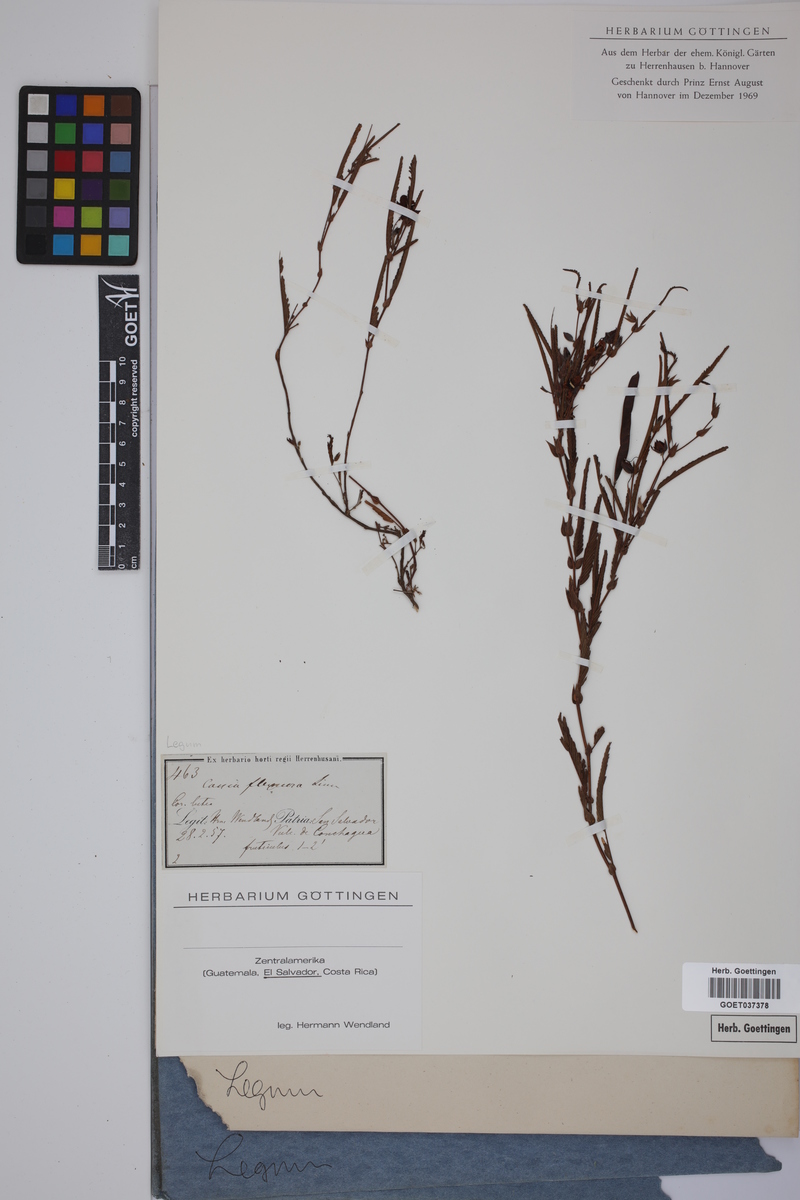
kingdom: Plantae
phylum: Tracheophyta
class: Magnoliopsida
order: Fabales
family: Fabaceae
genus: Chamaecrista
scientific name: Chamaecrista flexuosa
